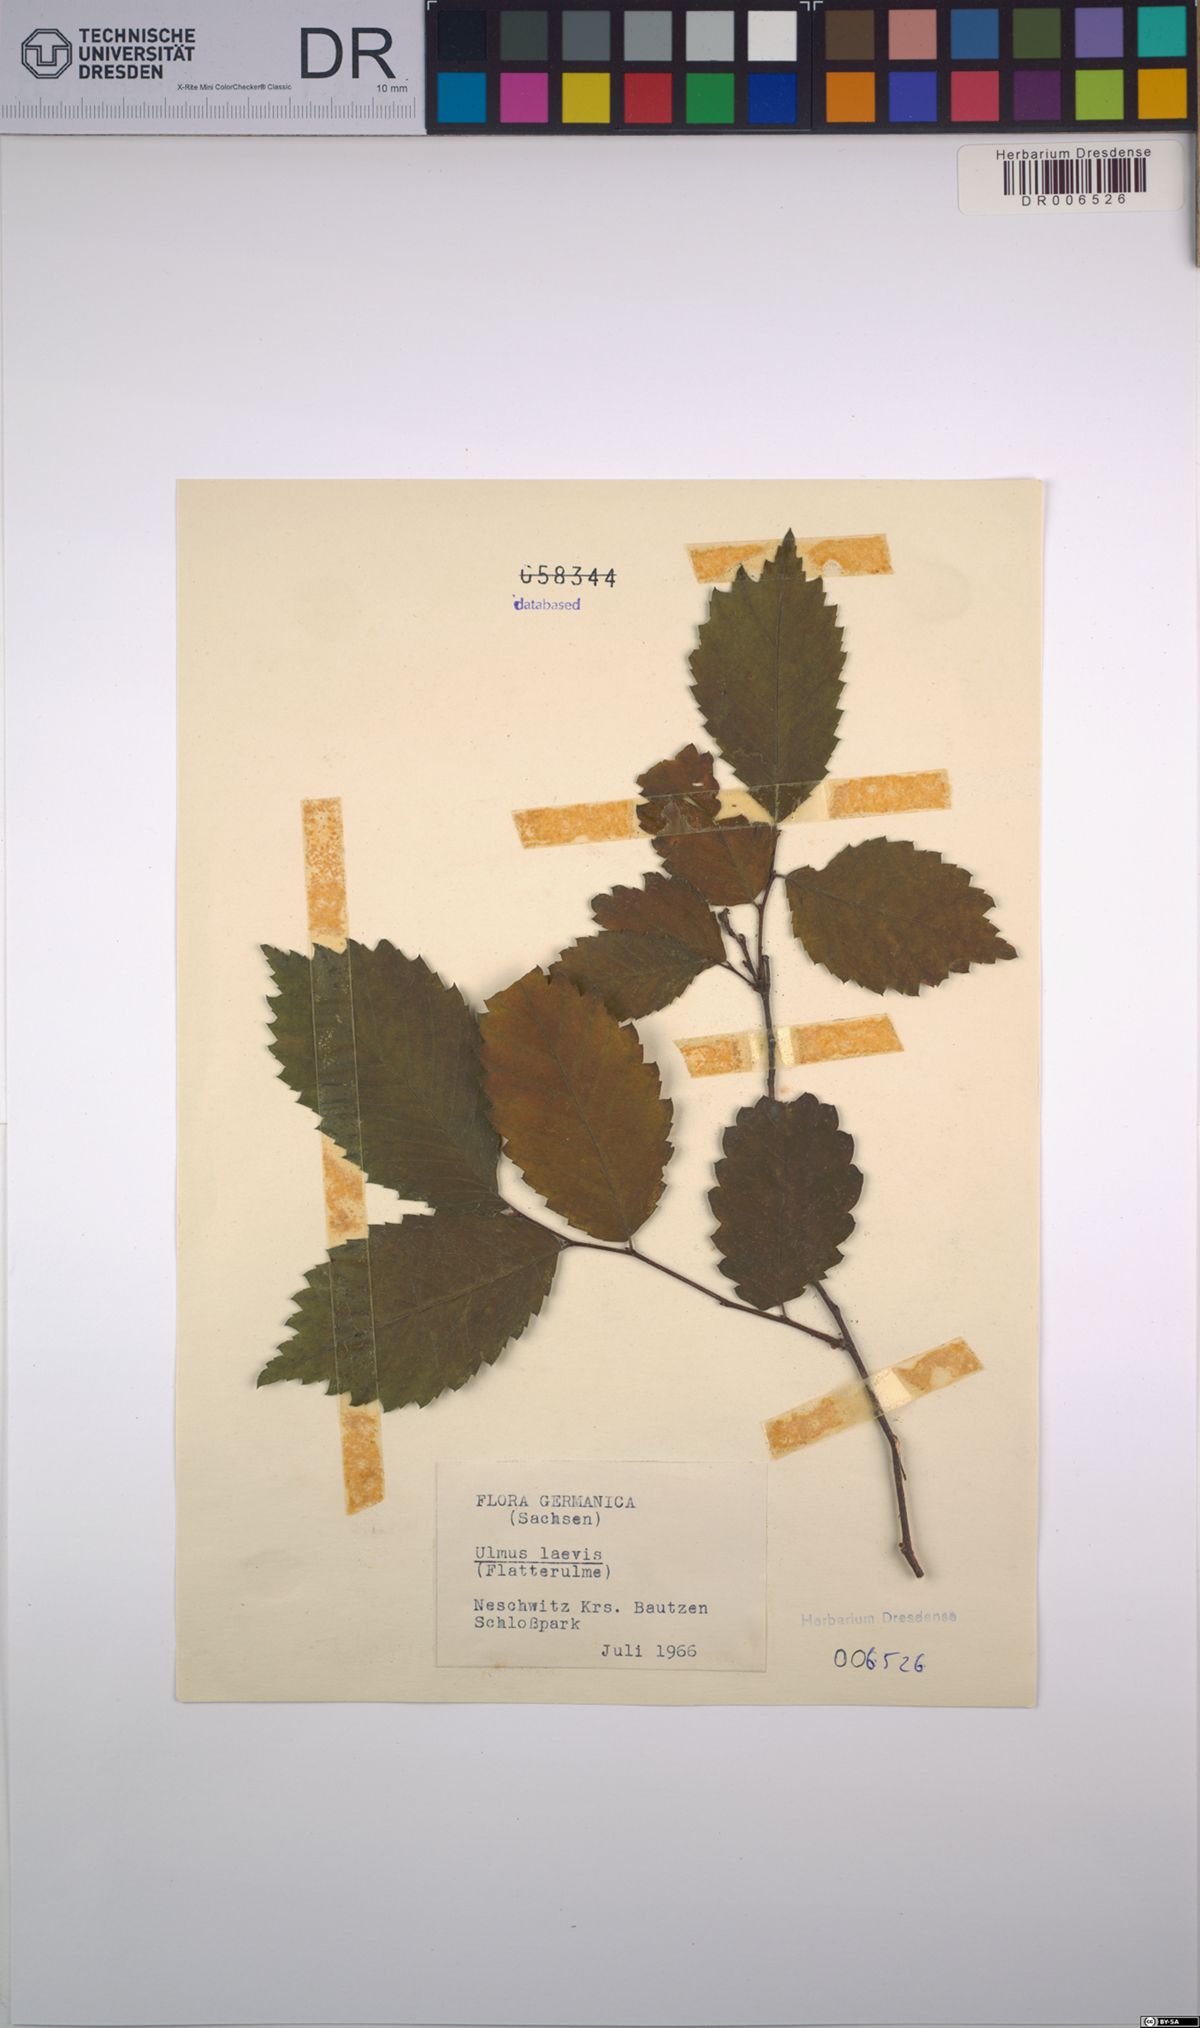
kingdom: Plantae
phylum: Tracheophyta
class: Magnoliopsida
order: Rosales
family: Ulmaceae
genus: Ulmus
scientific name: Ulmus laevis
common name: European white-elm
